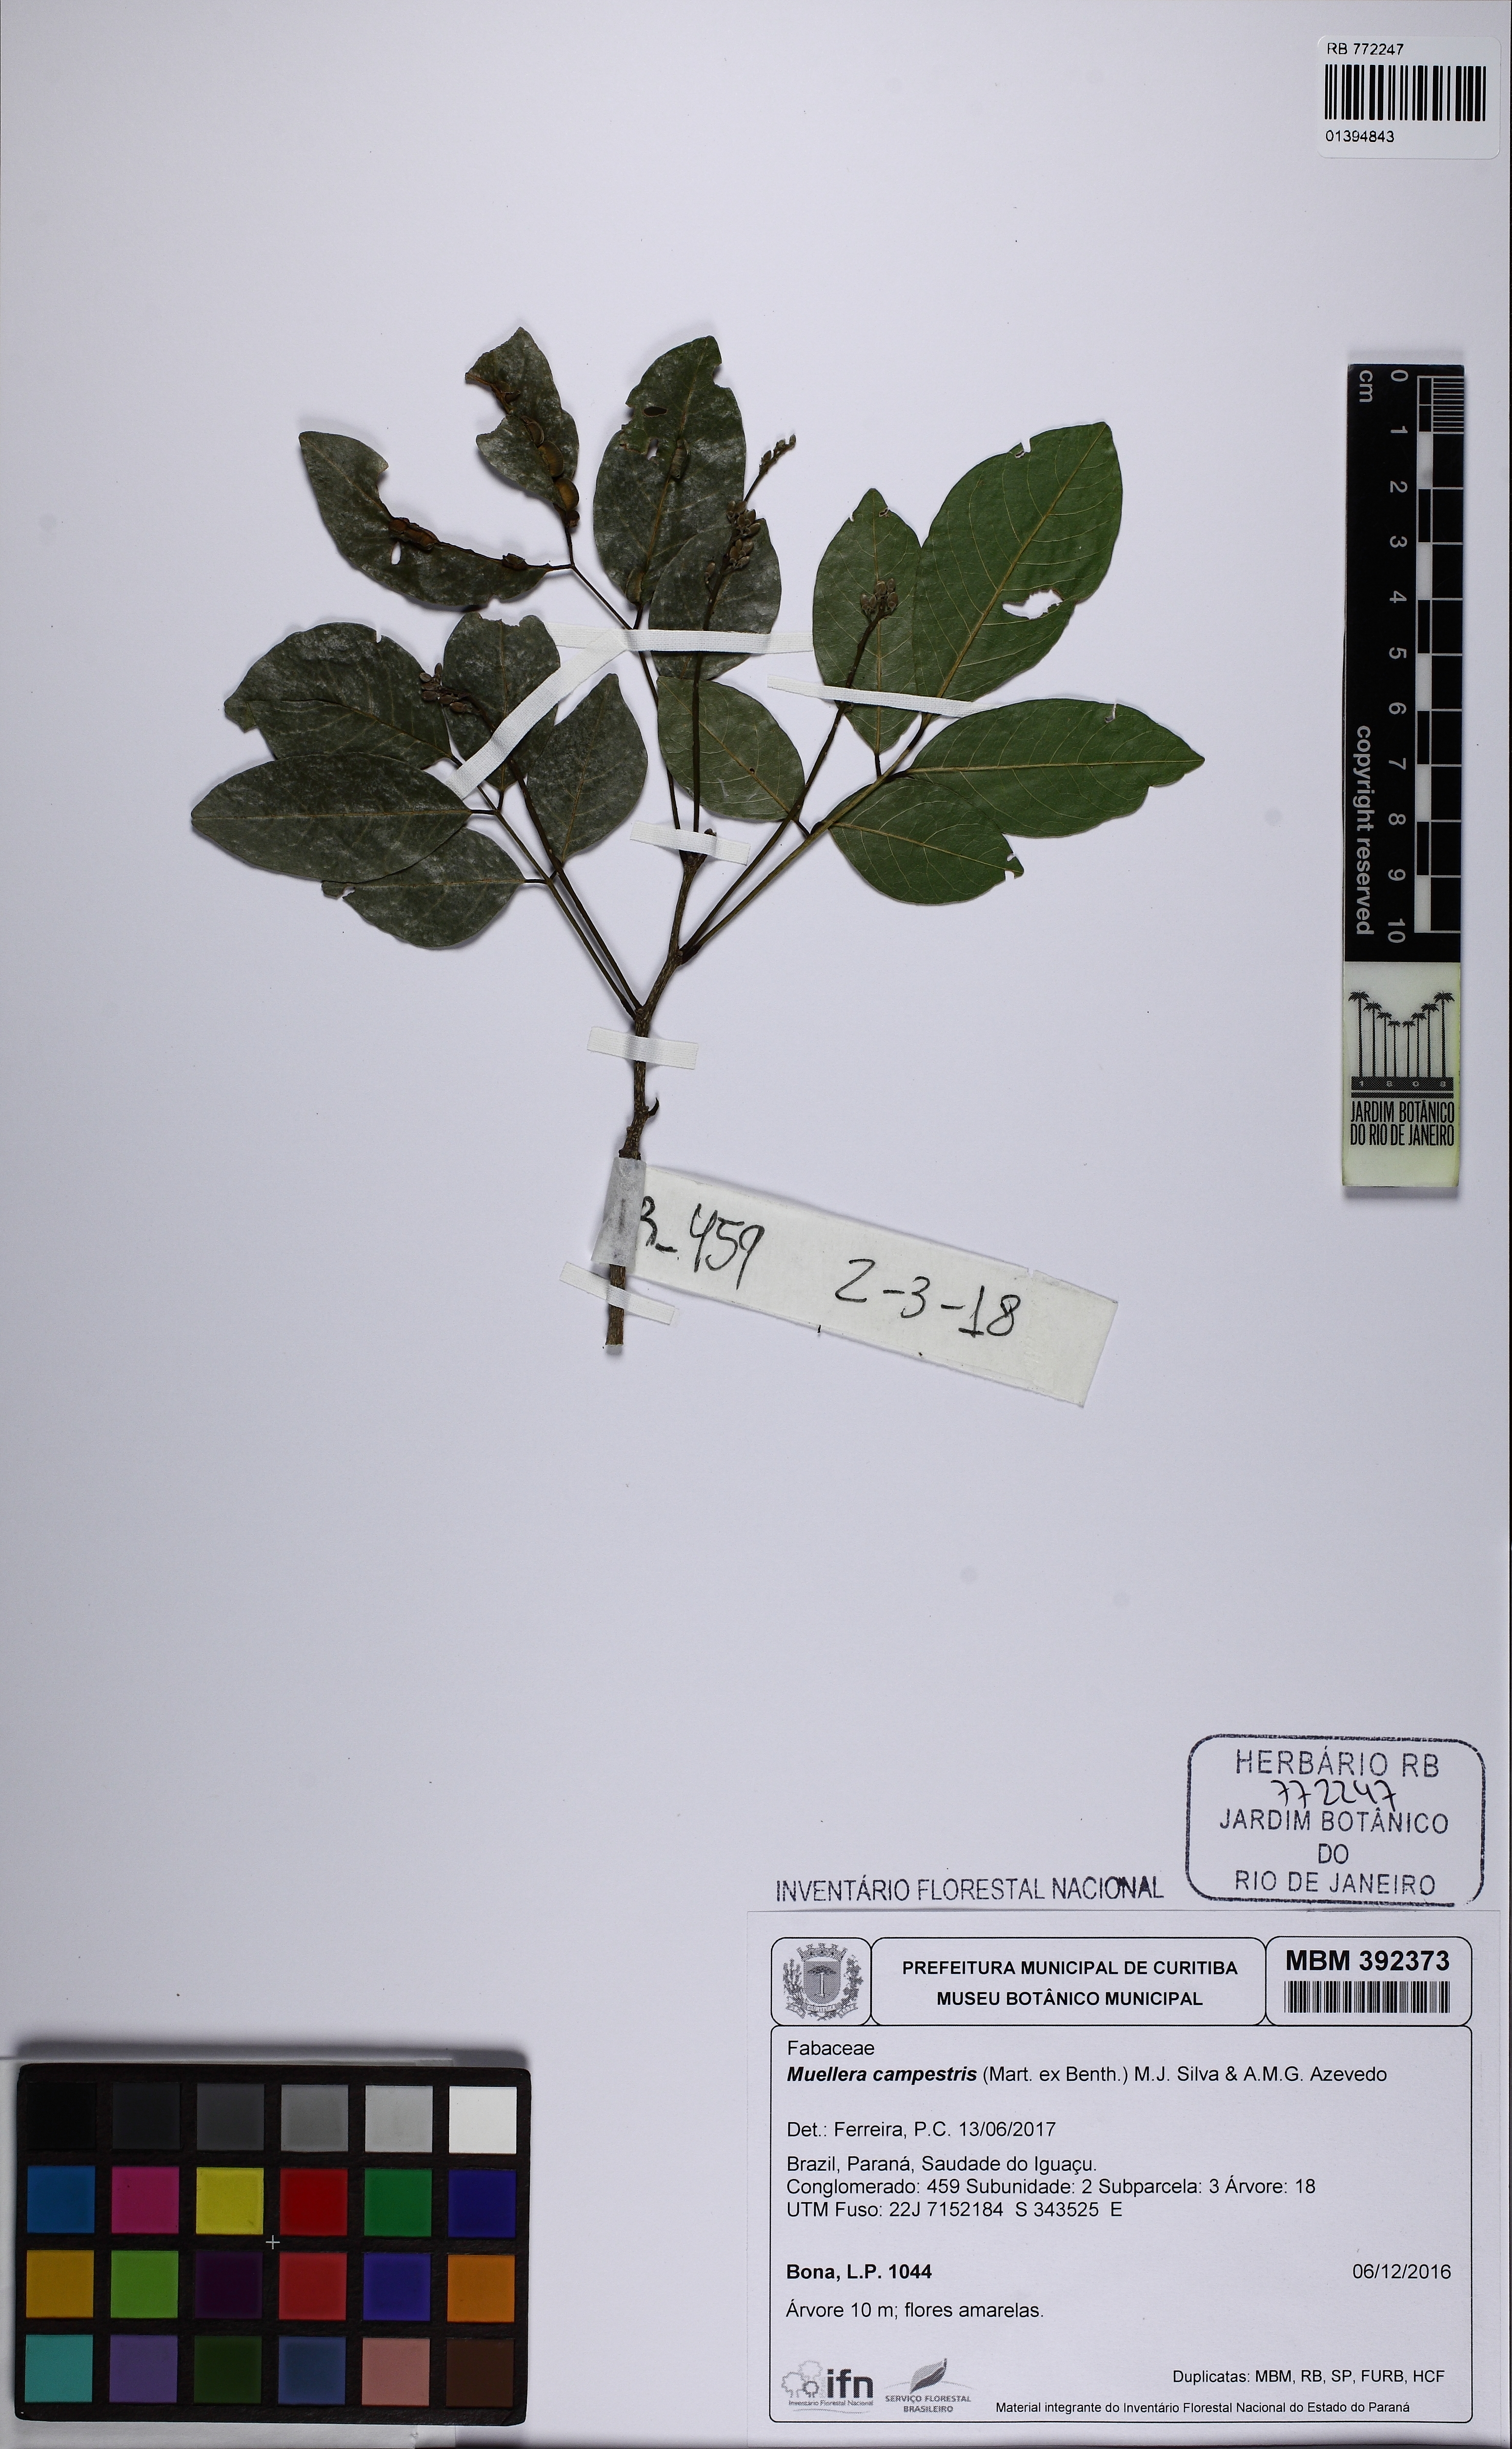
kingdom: Plantae
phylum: Tracheophyta
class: Magnoliopsida
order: Fabales
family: Fabaceae
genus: Muellera
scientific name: Muellera campestris
